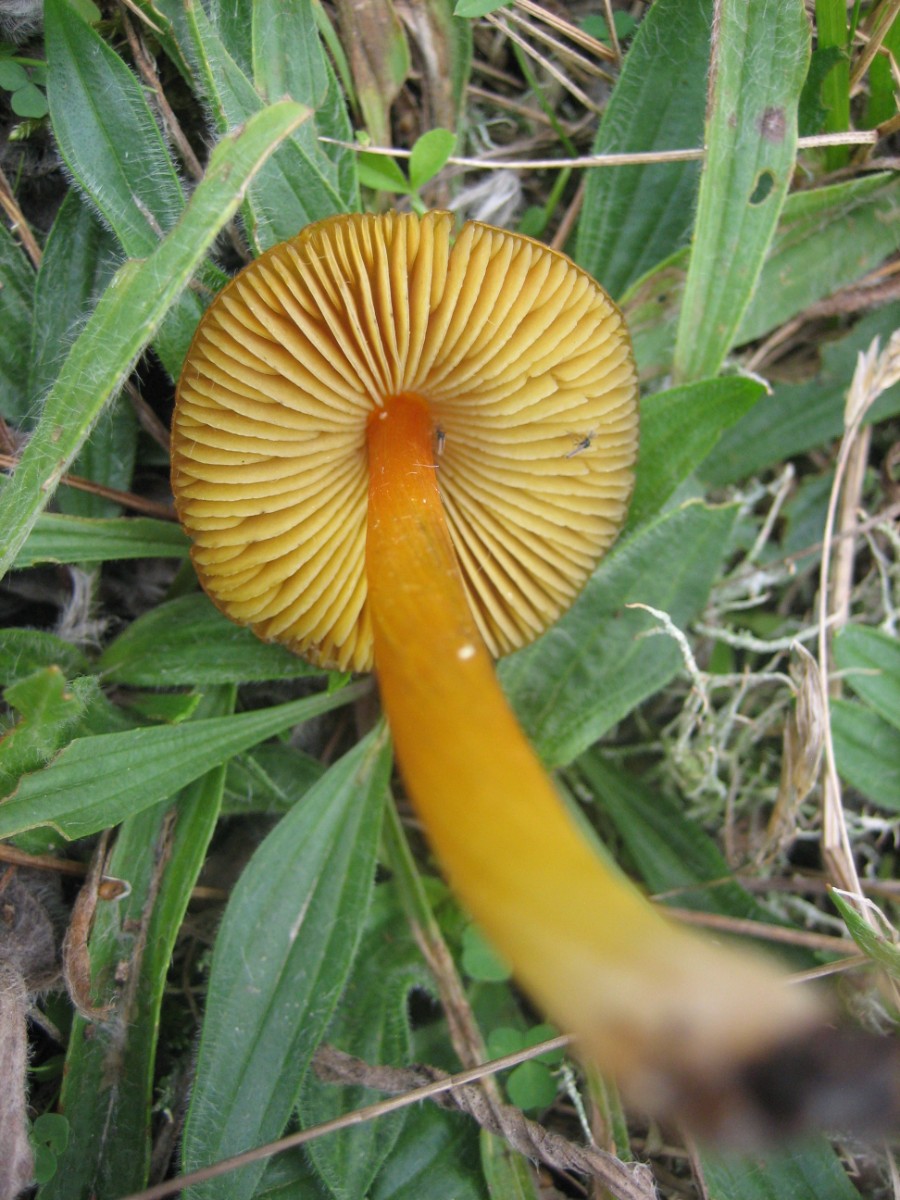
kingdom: Fungi
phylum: Basidiomycota
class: Agaricomycetes
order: Agaricales
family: Hygrophoraceae
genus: Hygrocybe
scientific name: Hygrocybe conica
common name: kegle-vokshat
